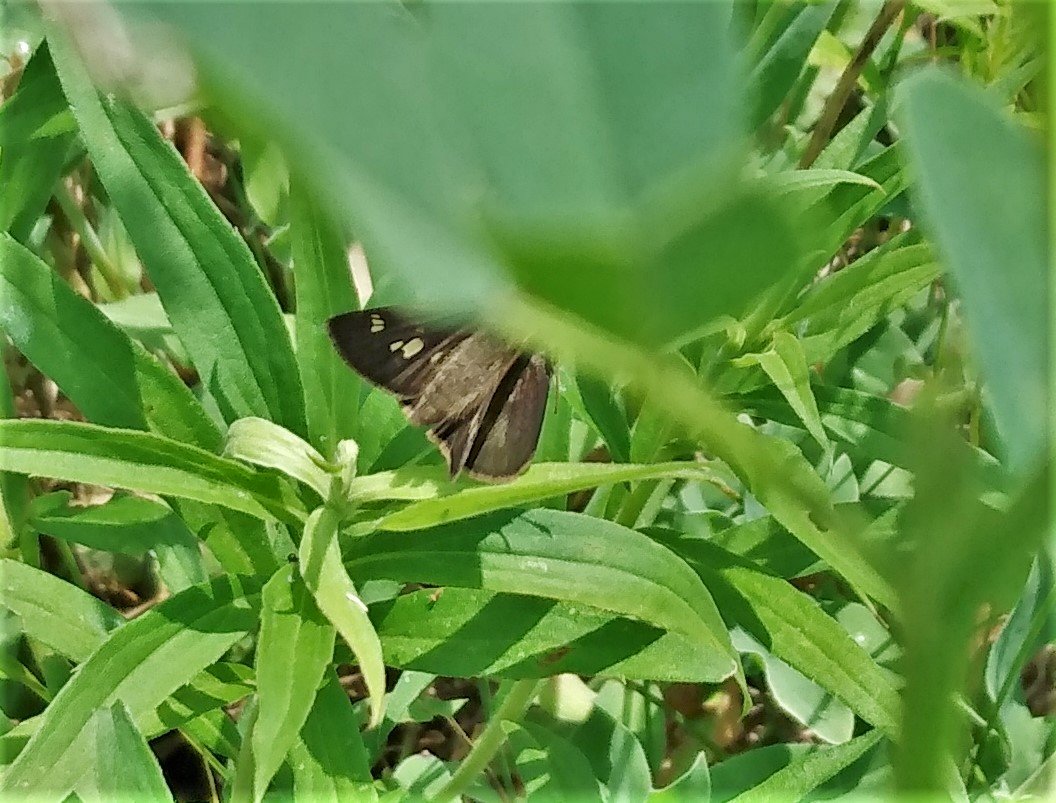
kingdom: Animalia
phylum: Arthropoda
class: Insecta
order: Lepidoptera
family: Hesperiidae
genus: Vernia
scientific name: Vernia verna
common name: Little Glassywing
